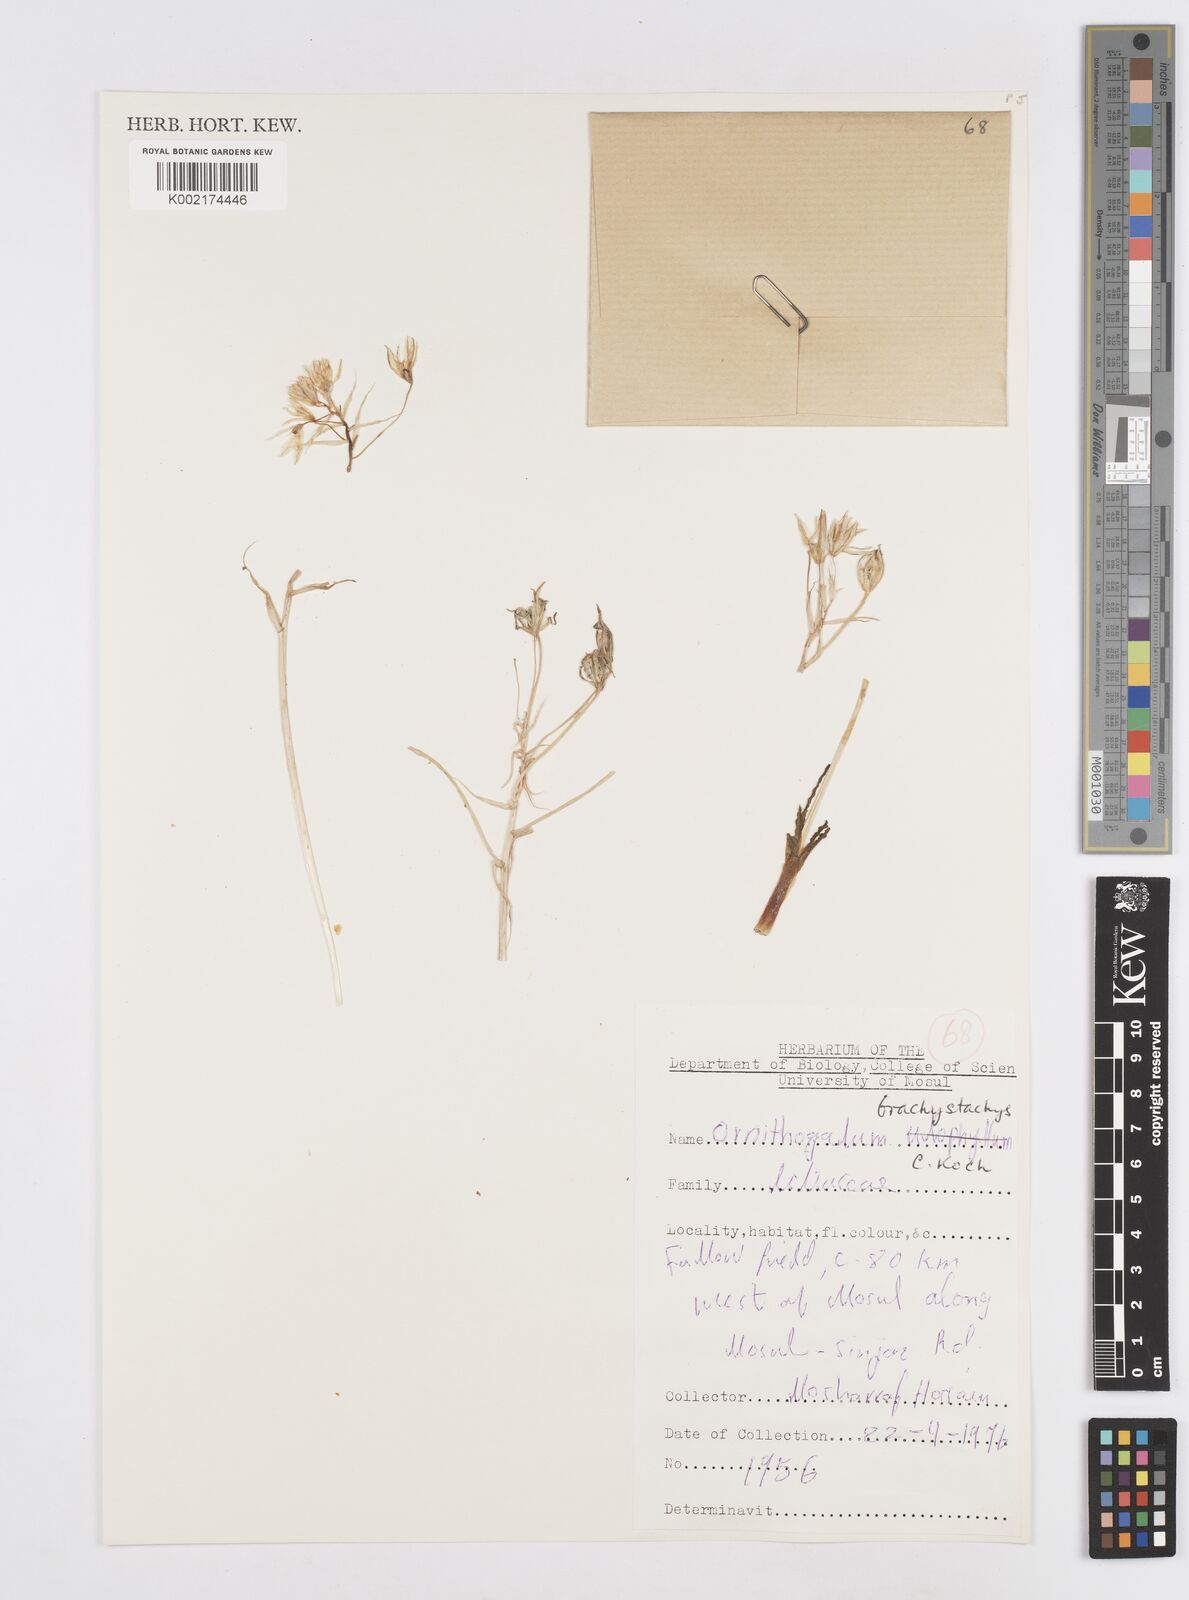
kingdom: Plantae
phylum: Tracheophyta
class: Liliopsida
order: Asparagales
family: Asparagaceae
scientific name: Asparagaceae
